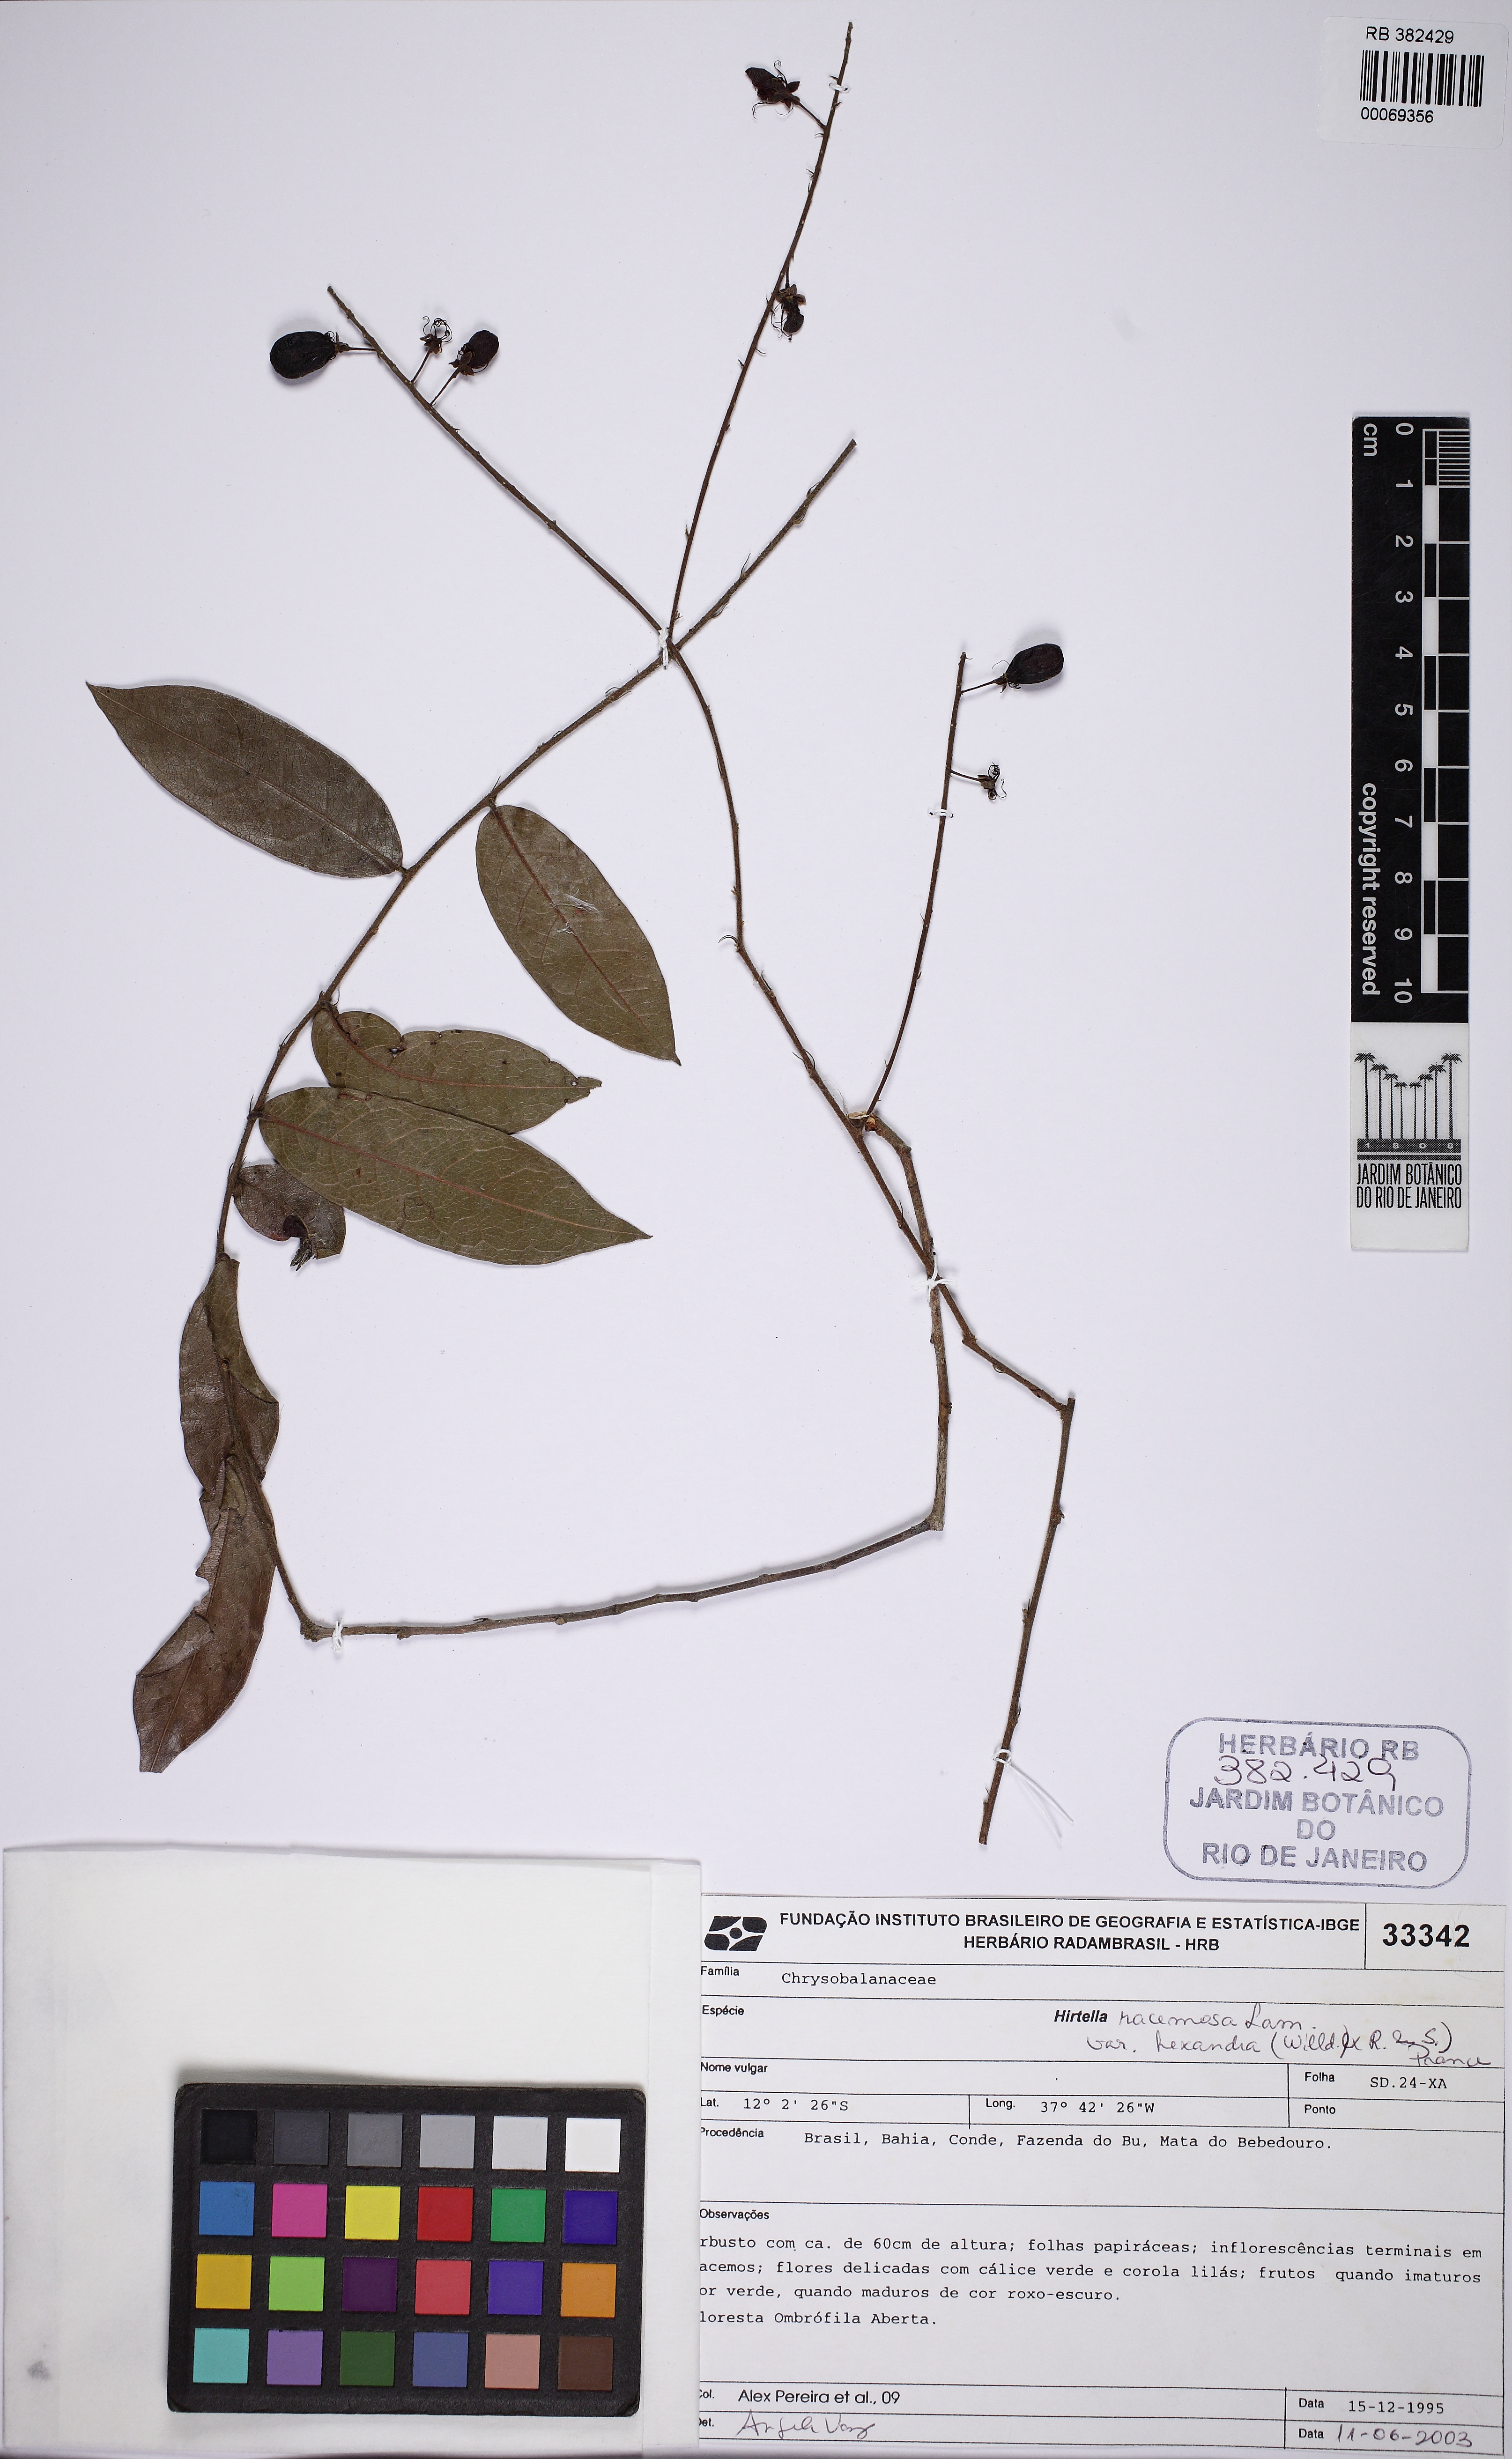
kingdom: Plantae
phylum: Tracheophyta
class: Magnoliopsida
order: Malpighiales
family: Chrysobalanaceae
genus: Hirtella
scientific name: Hirtella racemosa
